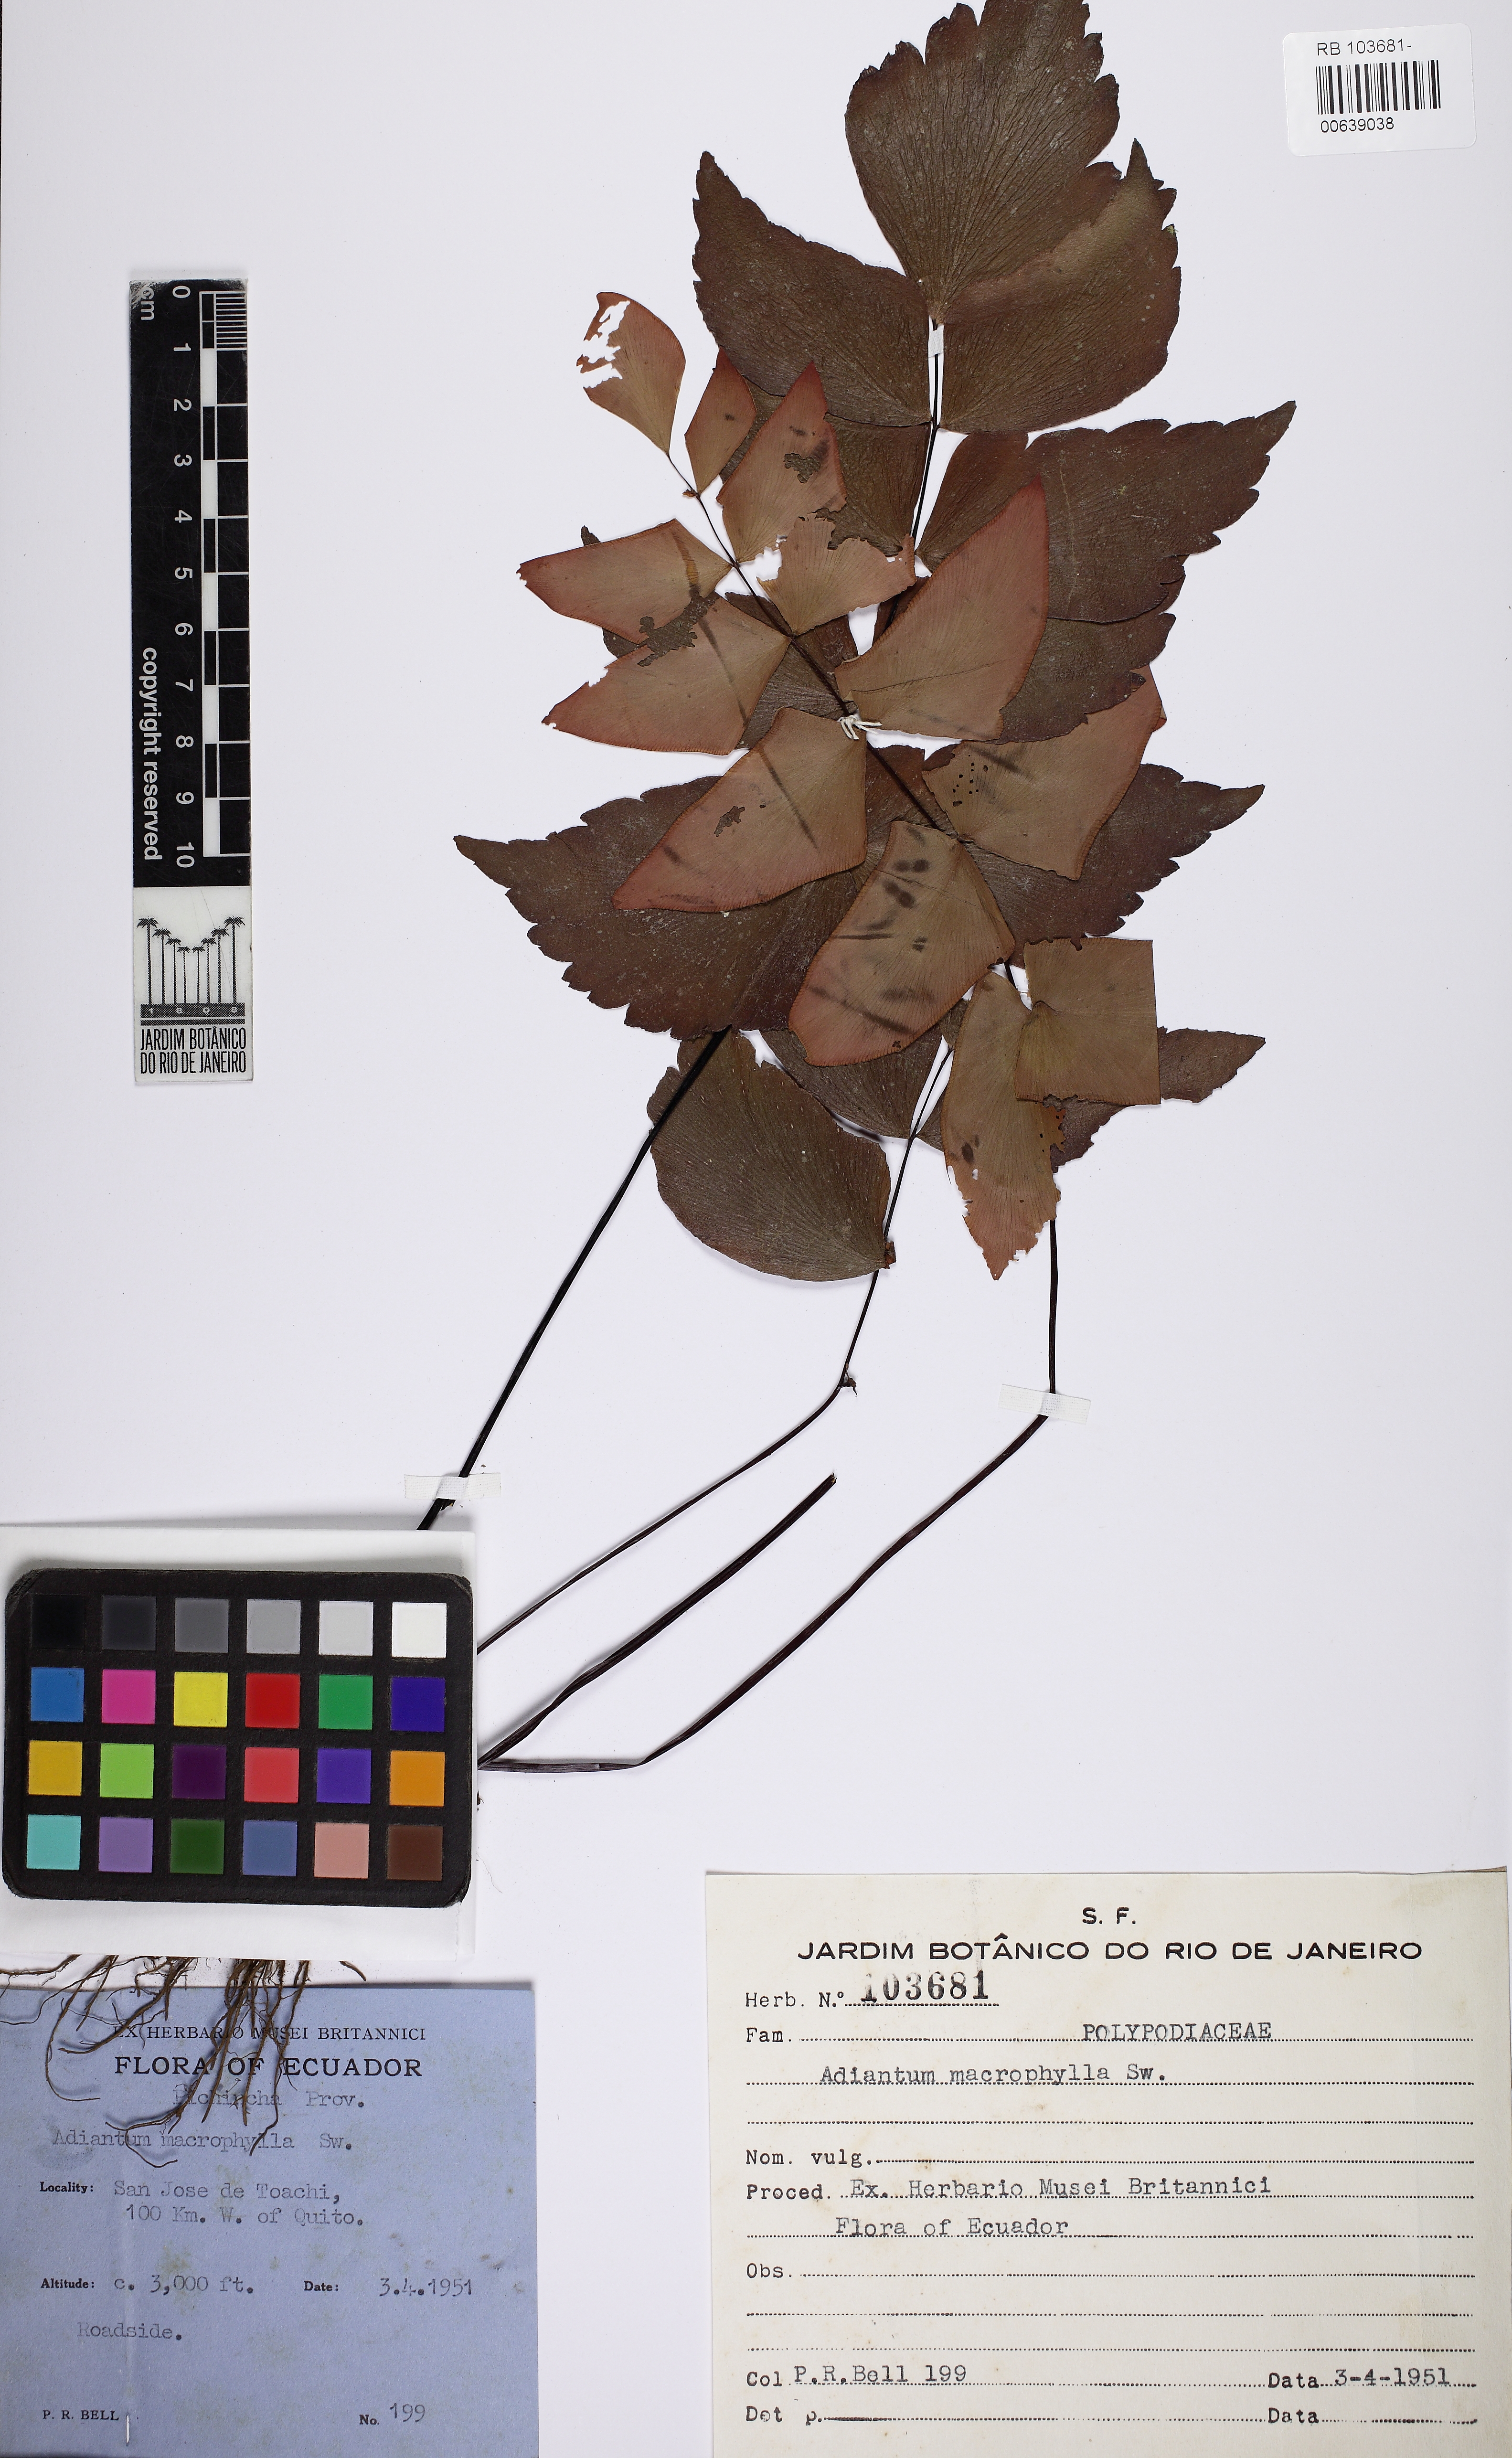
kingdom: Plantae
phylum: Tracheophyta
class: Polypodiopsida
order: Polypodiales
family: Pteridaceae
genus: Adiantum
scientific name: Adiantum macrophyllum
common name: Largeleaf maidenhair
